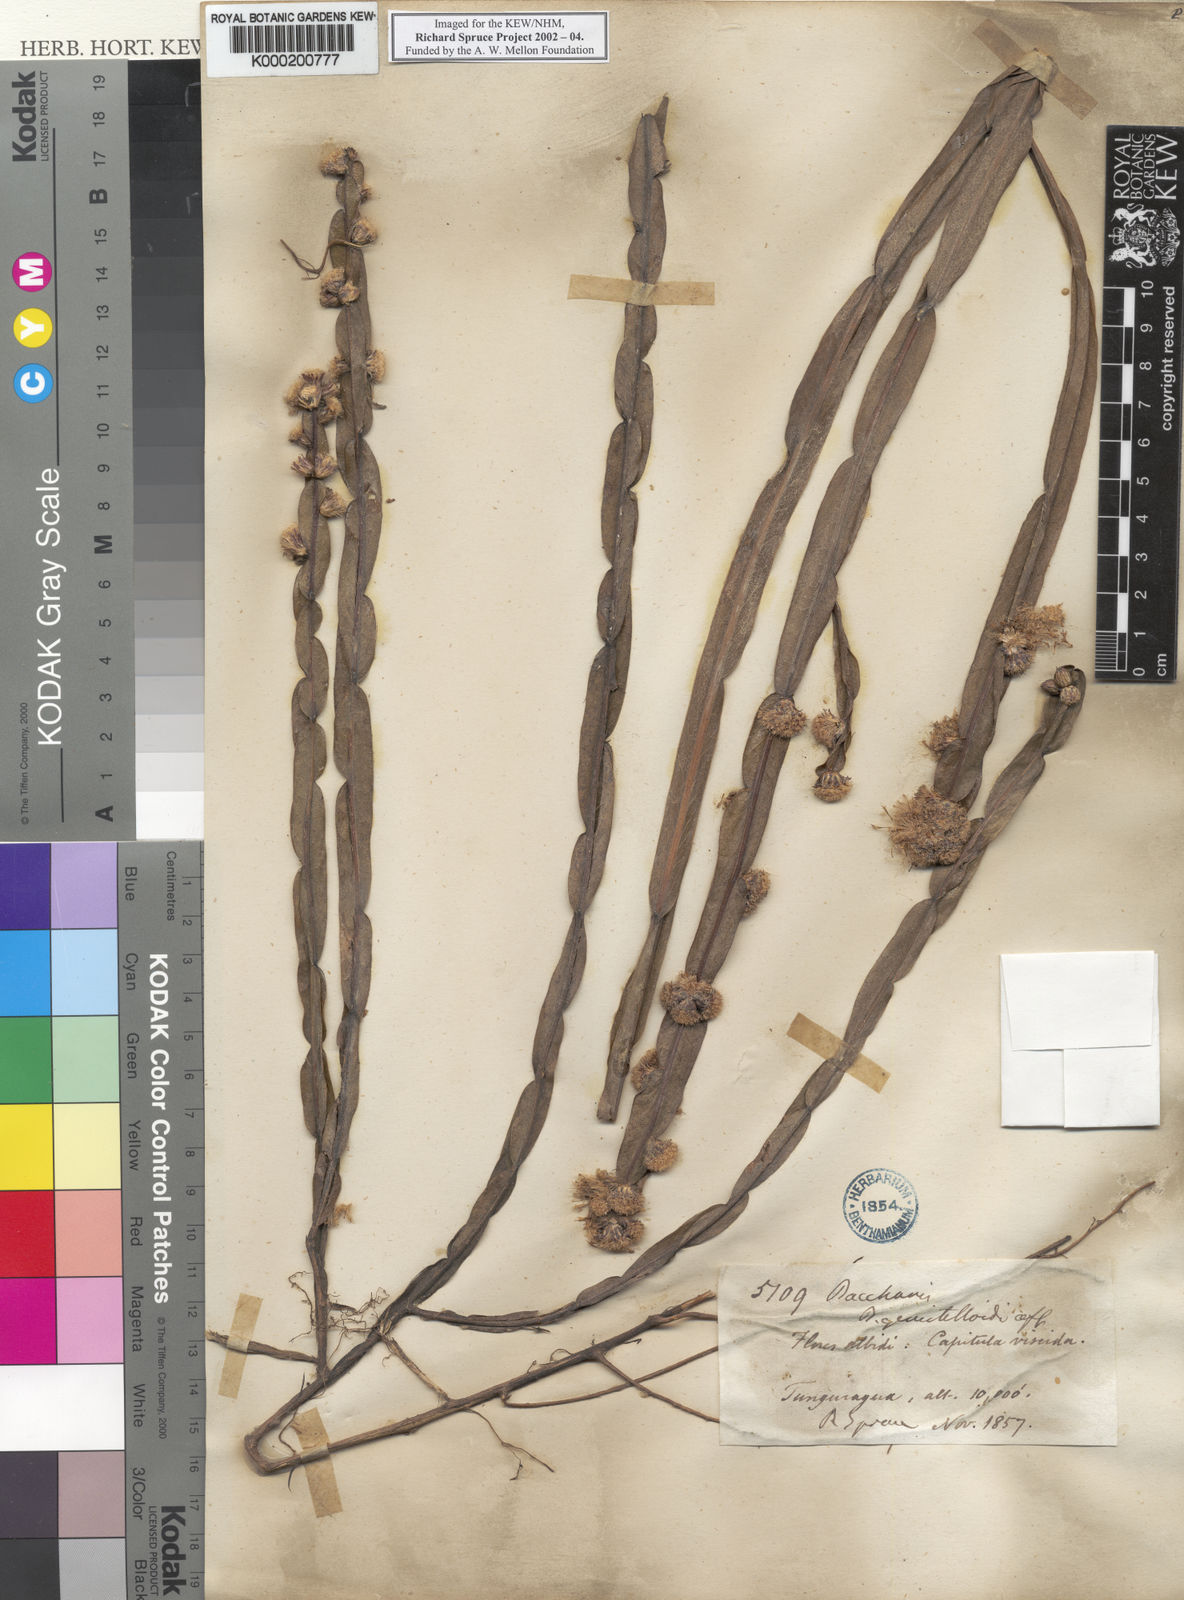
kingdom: Plantae
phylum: Tracheophyta
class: Magnoliopsida
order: Asterales
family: Asteraceae
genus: Baccharis
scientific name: Baccharis genistelloides
